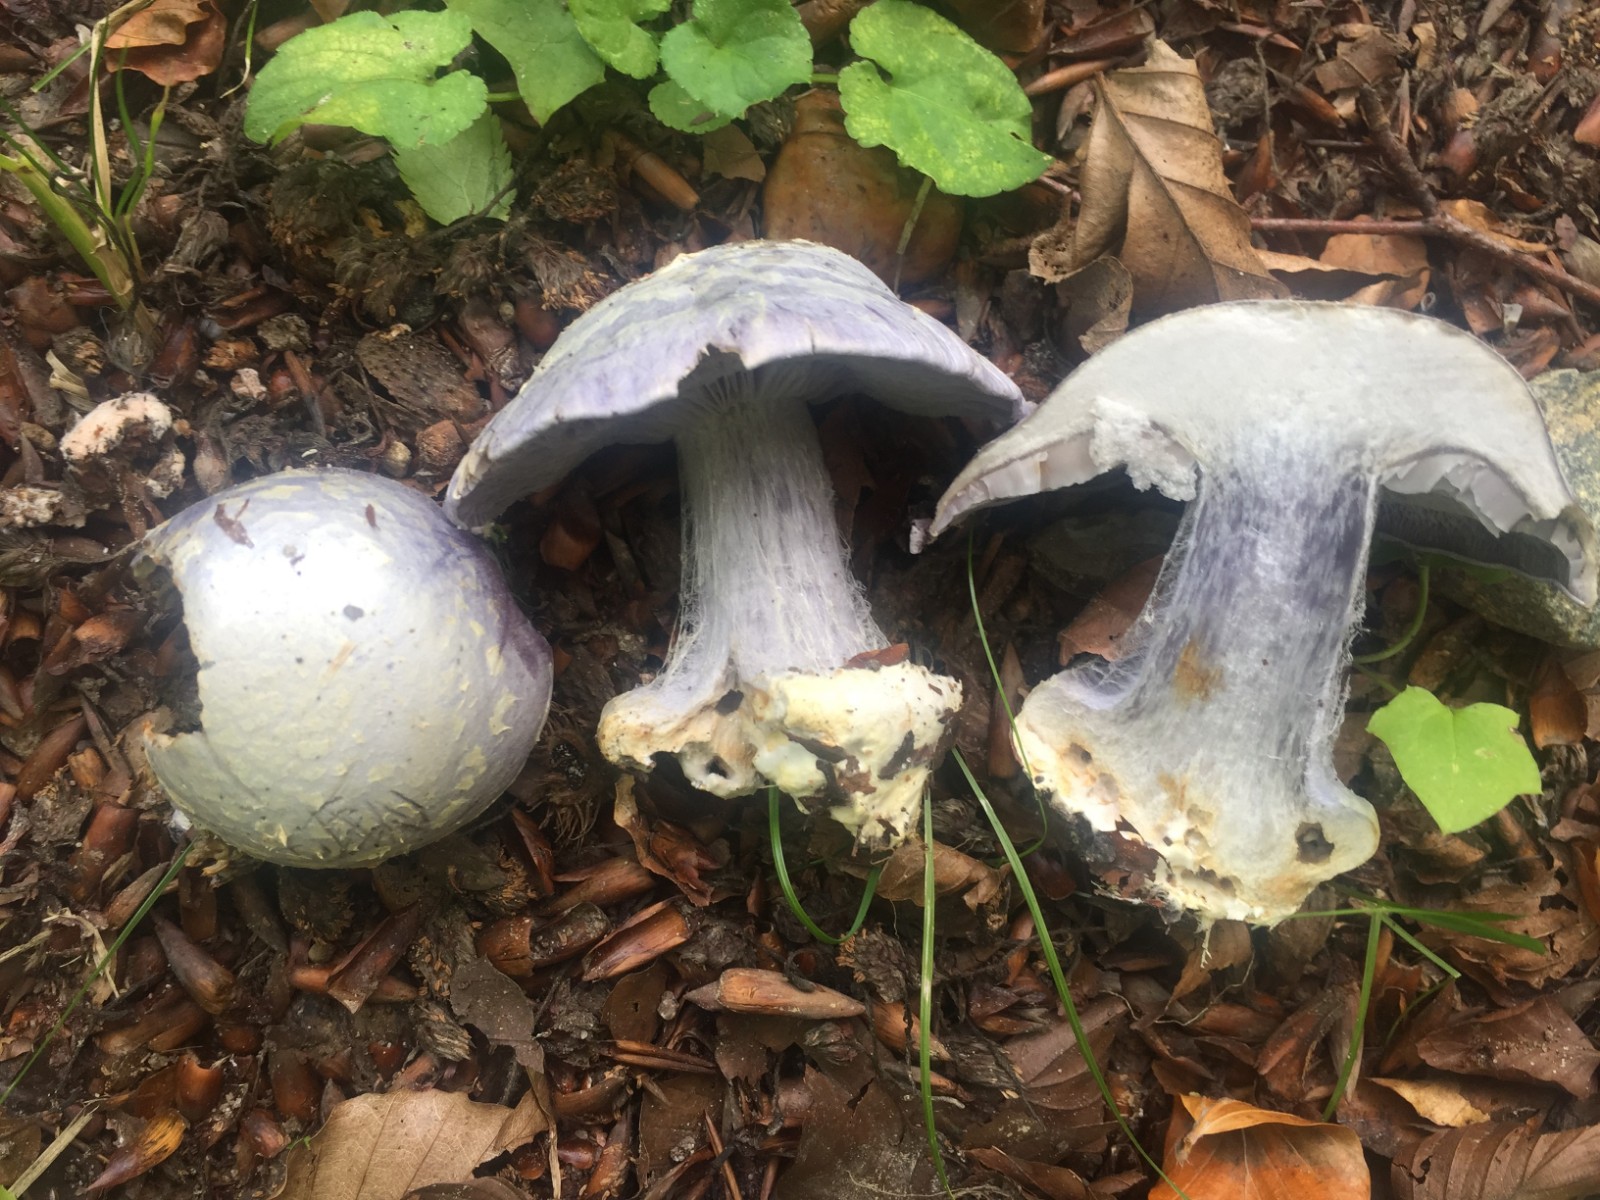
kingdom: Fungi
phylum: Basidiomycota
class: Agaricomycetes
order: Agaricales
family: Cortinariaceae
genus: Cortinarius
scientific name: Cortinarius caerulescens
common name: blåkødet slørhat
